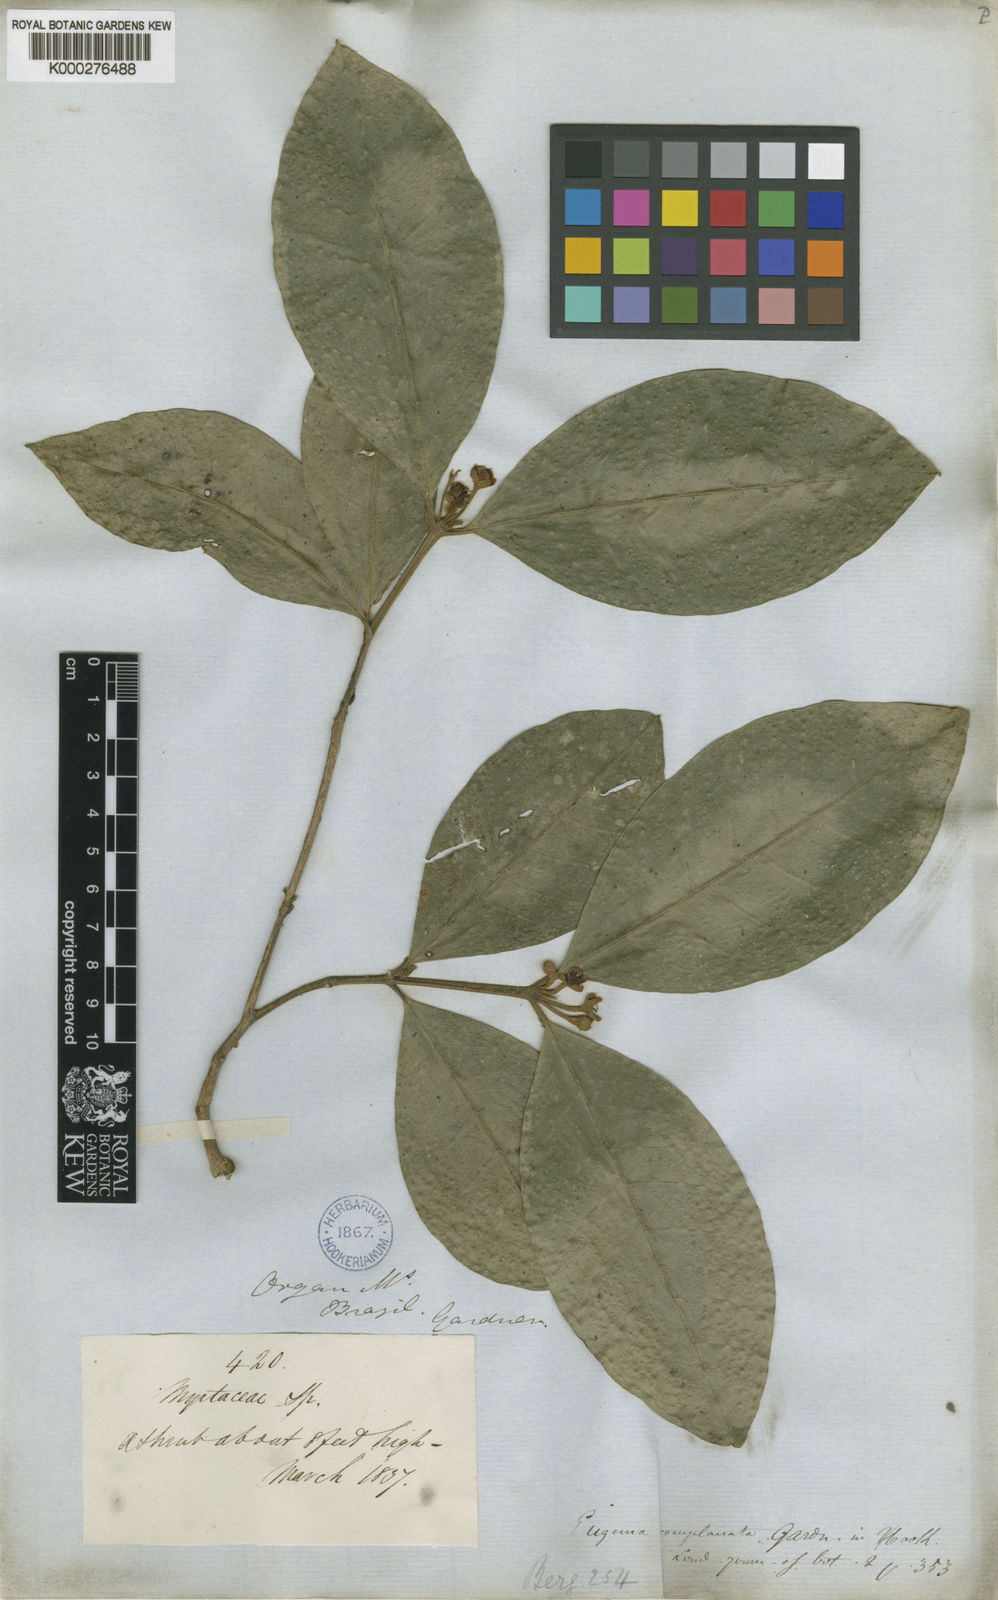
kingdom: Plantae
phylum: Tracheophyta
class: Magnoliopsida
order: Myrtales
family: Myrtaceae
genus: Myrceugenia
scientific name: Myrceugenia myrcioides
